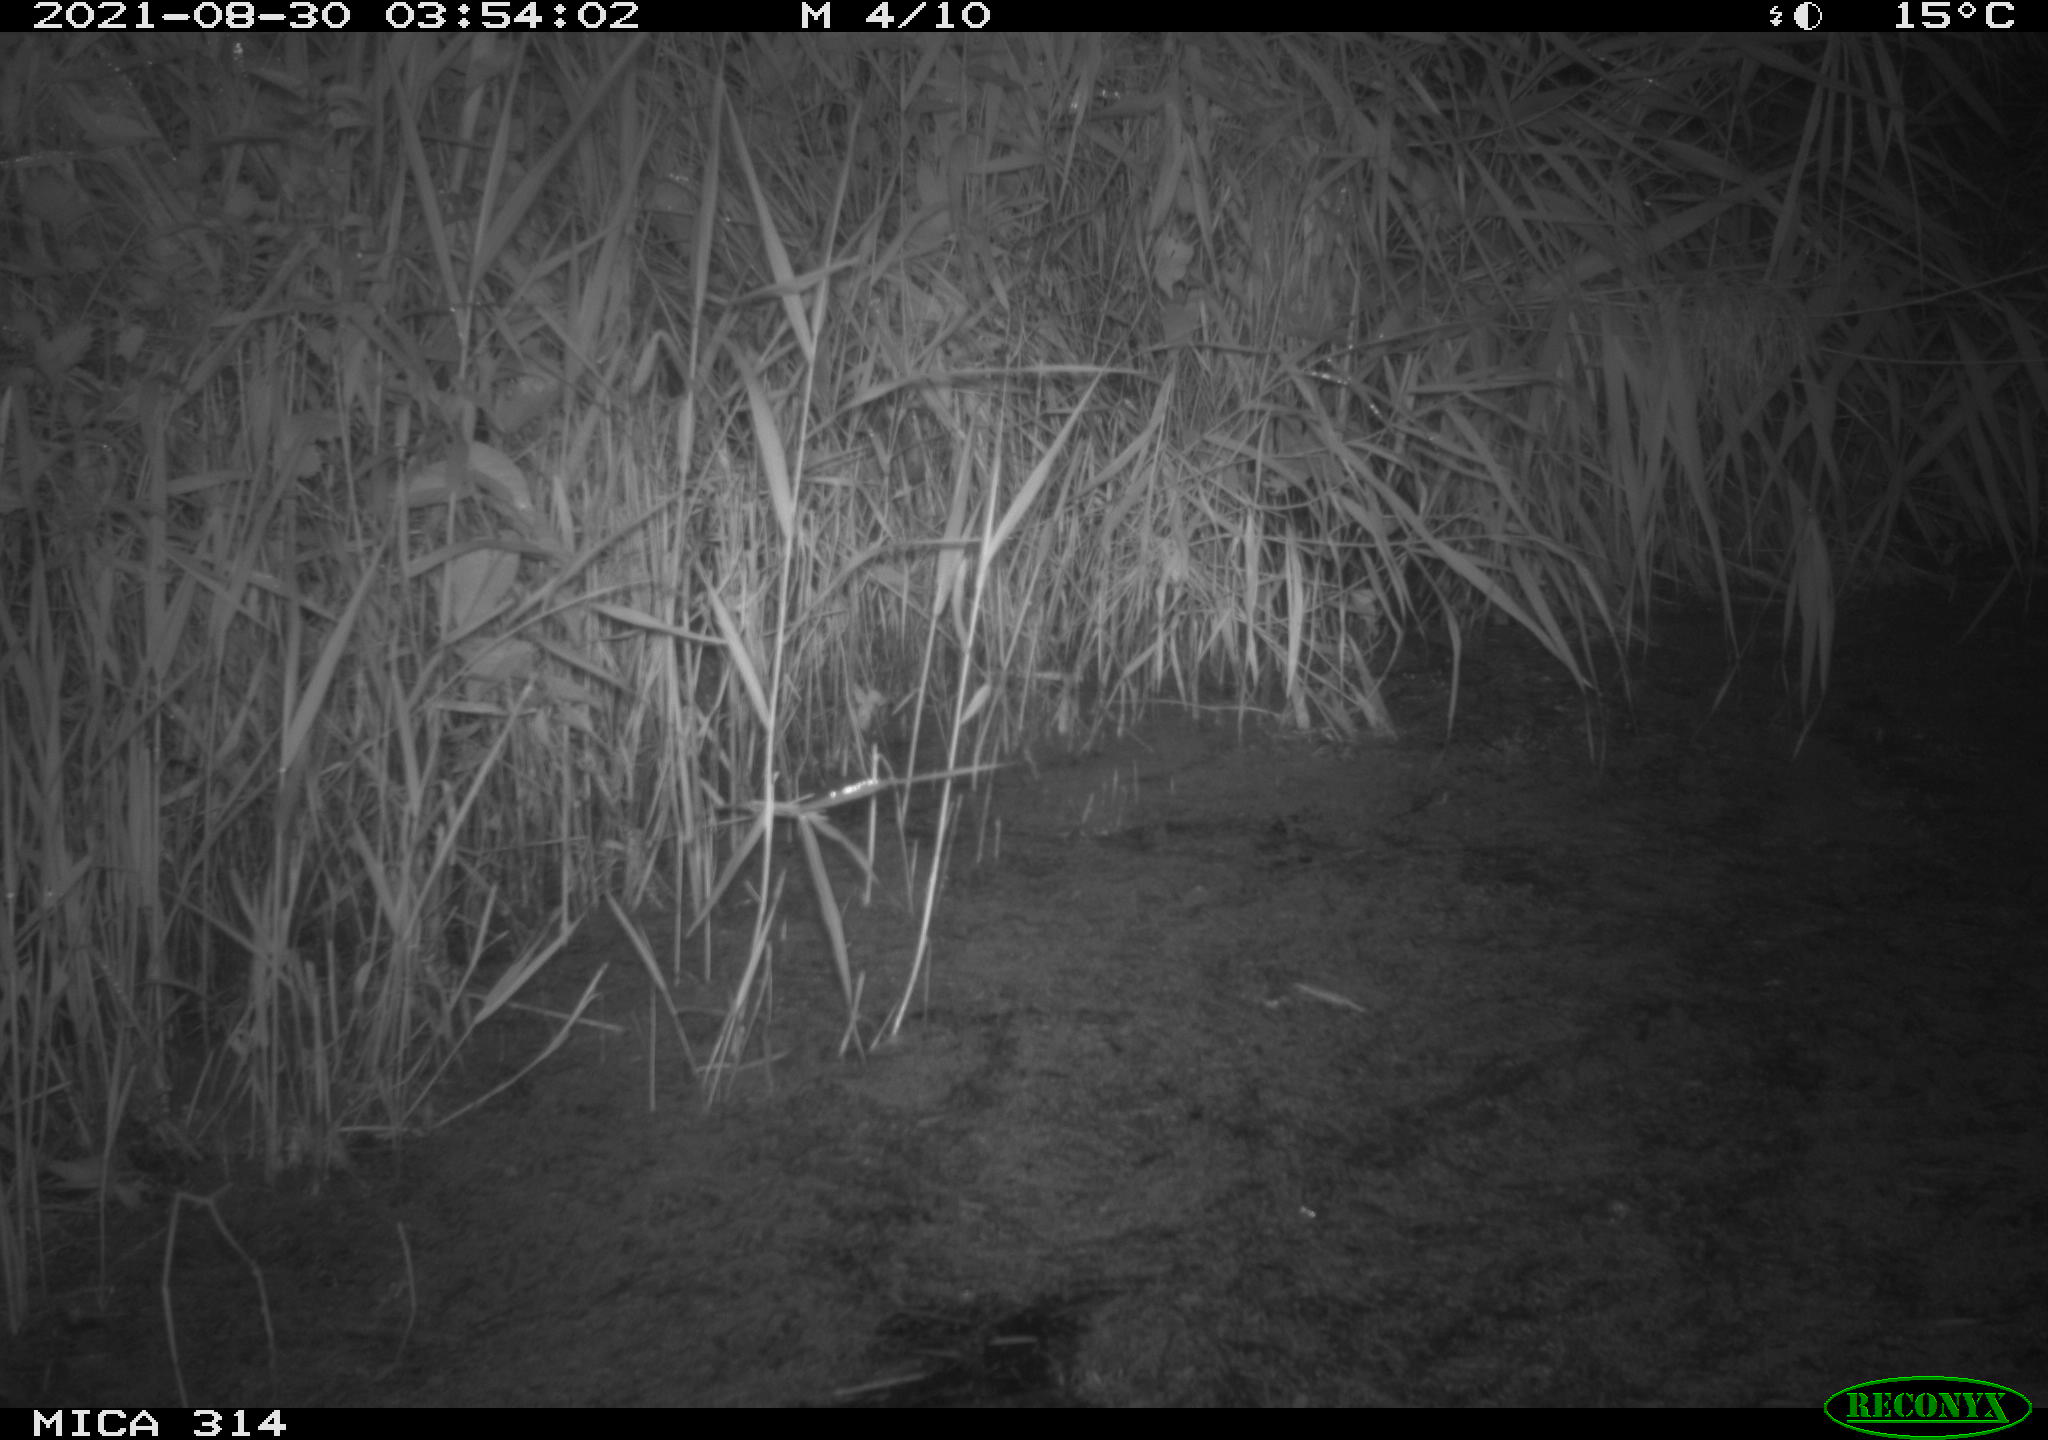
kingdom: Animalia
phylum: Chordata
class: Mammalia
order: Rodentia
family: Muridae
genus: Rattus
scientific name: Rattus norvegicus
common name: Brown rat
